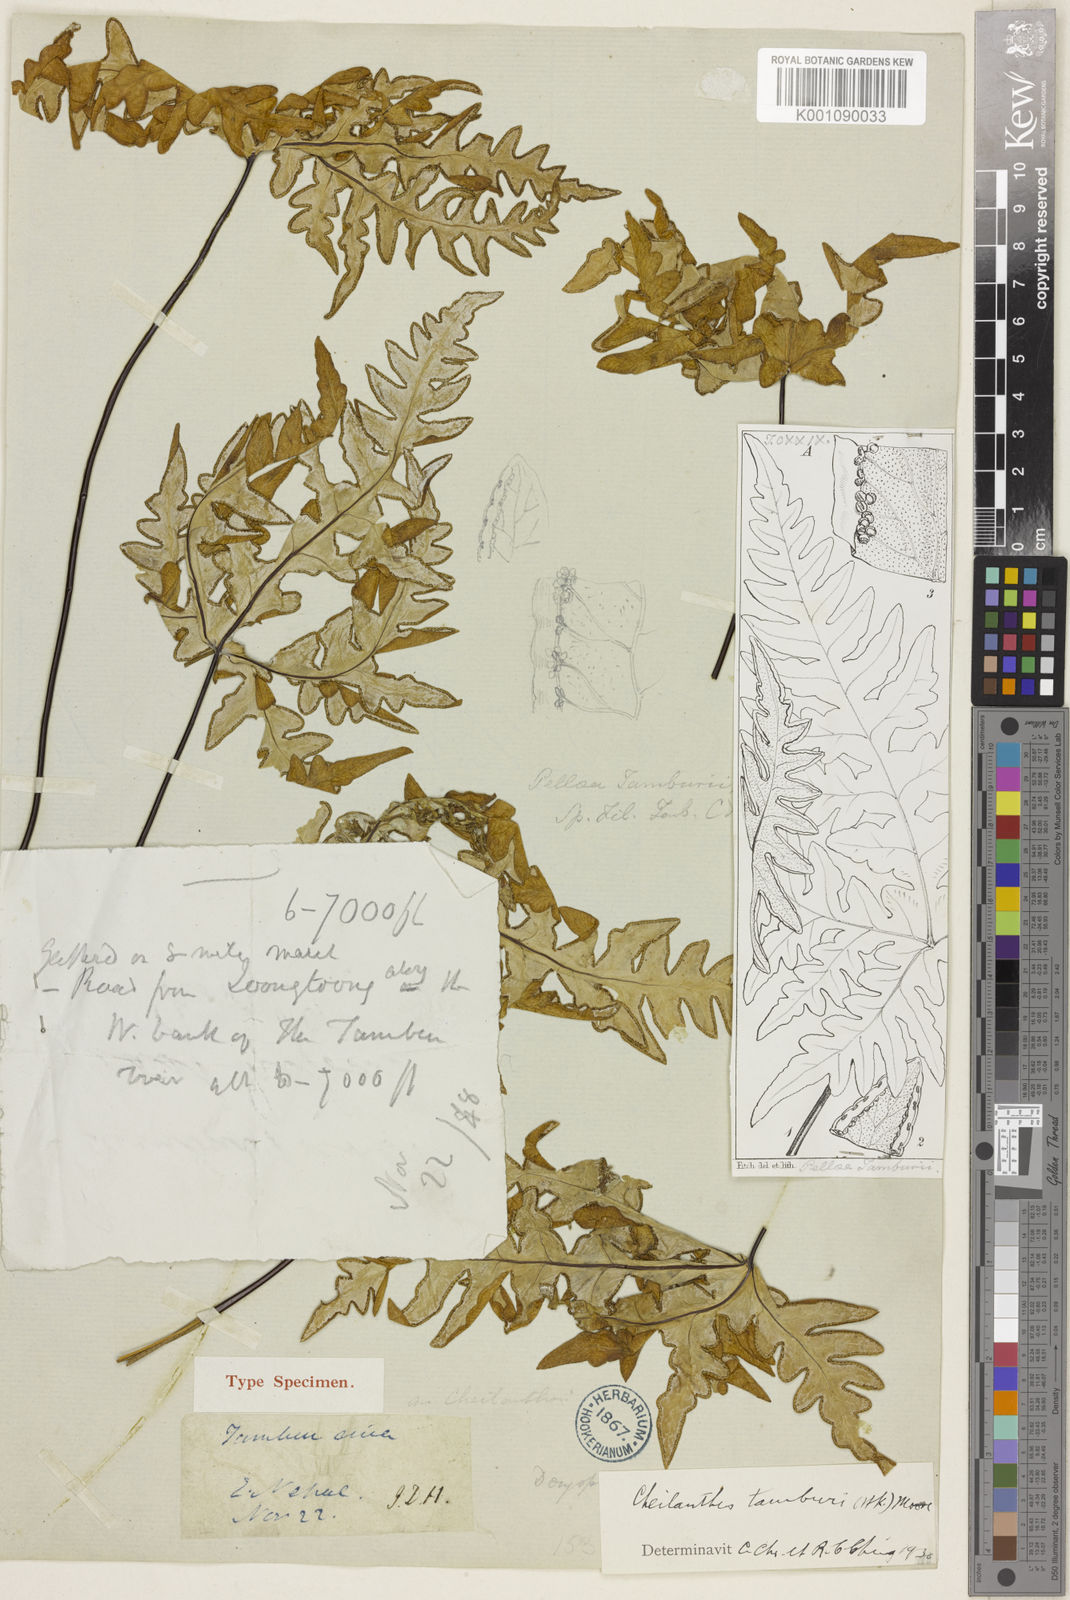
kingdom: Plantae
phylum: Tracheophyta
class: Polypodiopsida
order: Polypodiales
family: Pteridaceae
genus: Aleuritopteris
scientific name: Aleuritopteris tamburii
